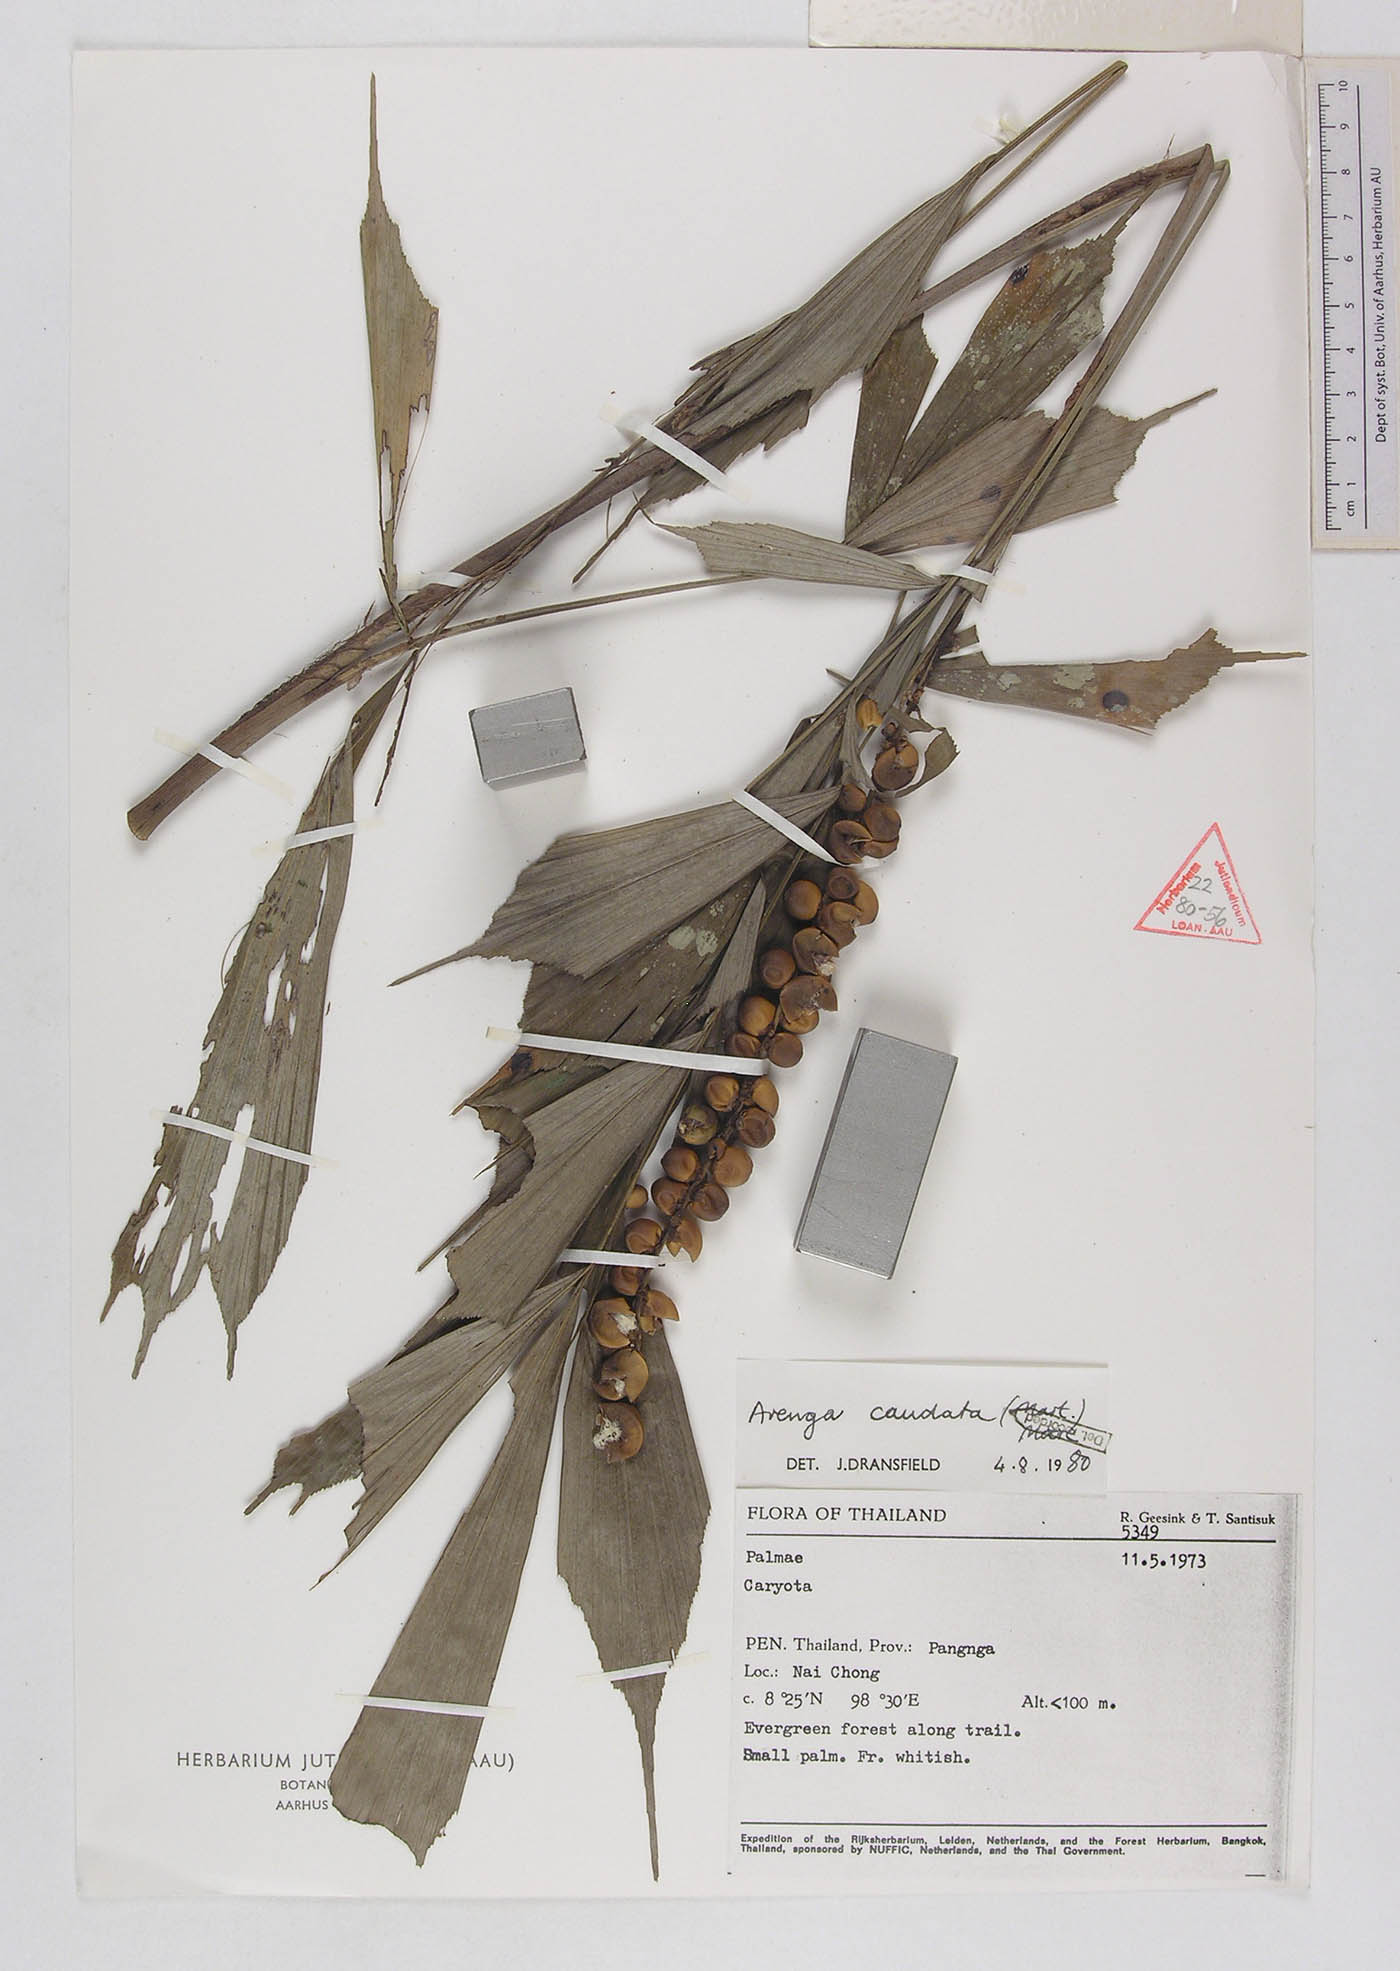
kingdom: Plantae
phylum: Tracheophyta
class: Liliopsida
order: Arecales
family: Arecaceae
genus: Arenga
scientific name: Arenga caudata
